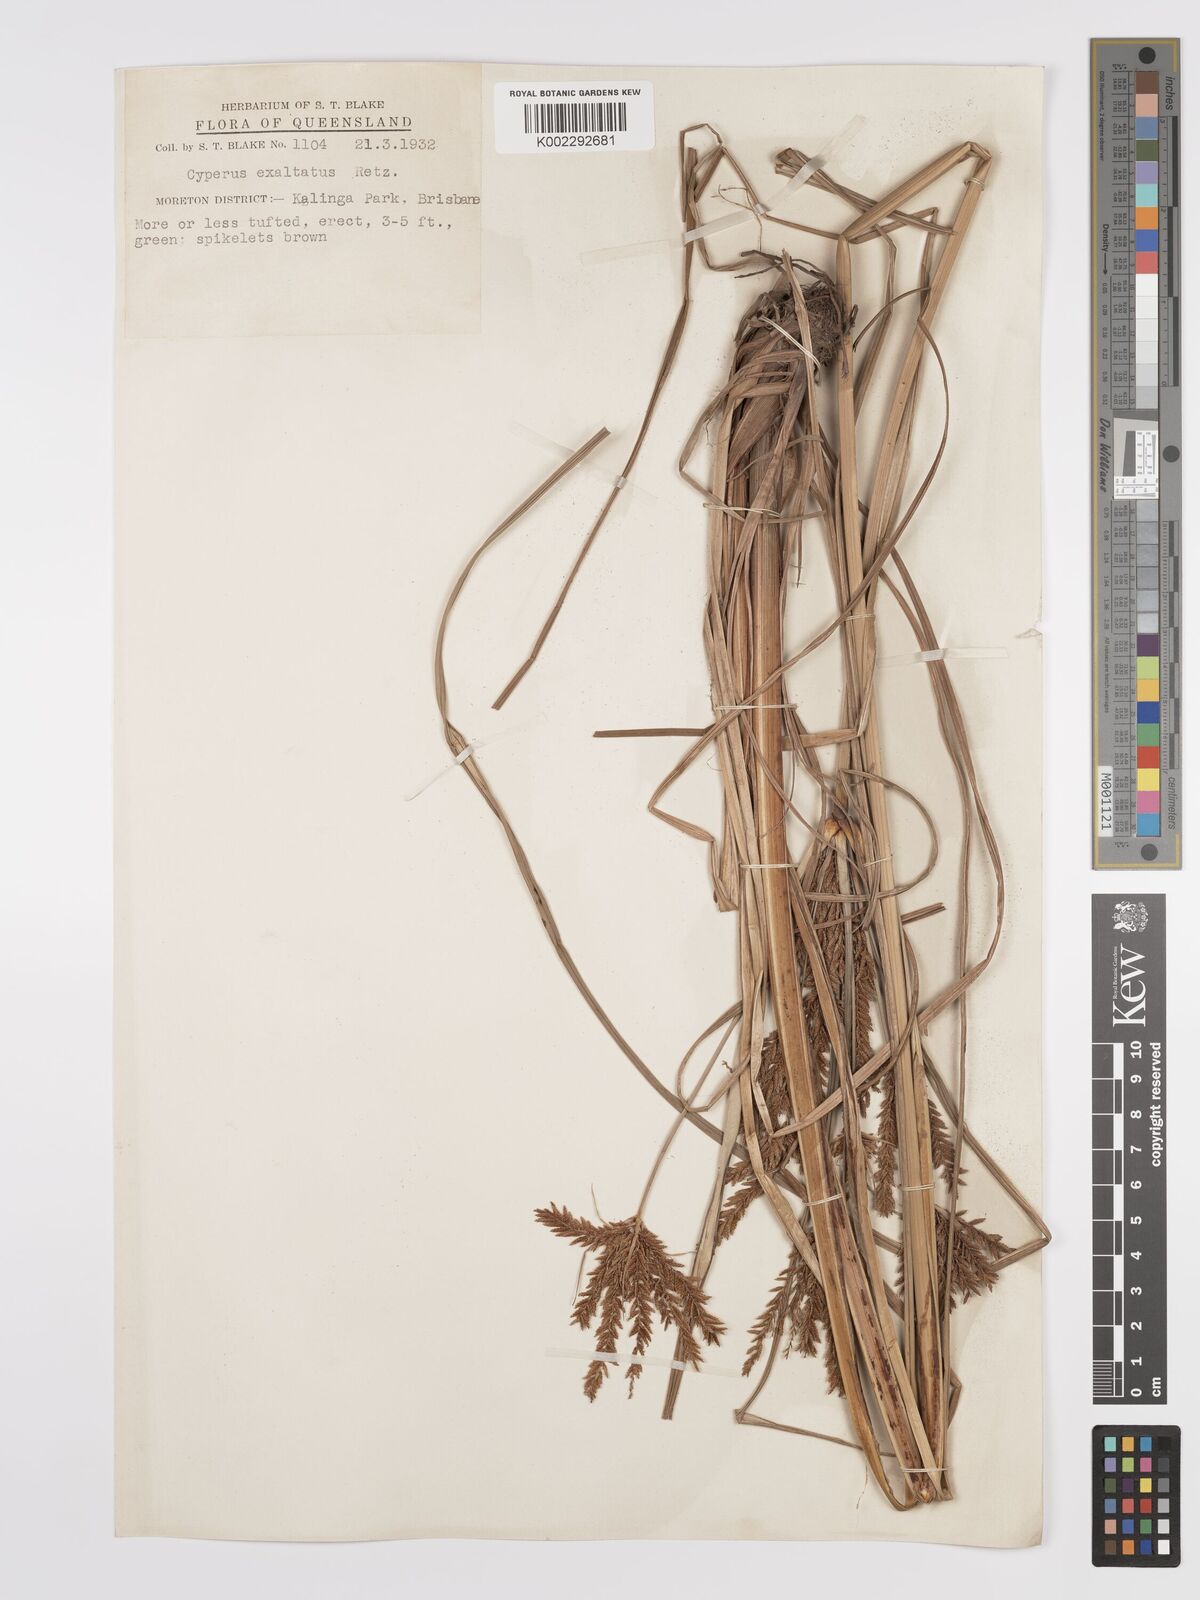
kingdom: Plantae
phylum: Tracheophyta
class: Liliopsida
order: Poales
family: Cyperaceae
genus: Cyperus
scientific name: Cyperus exaltatus
